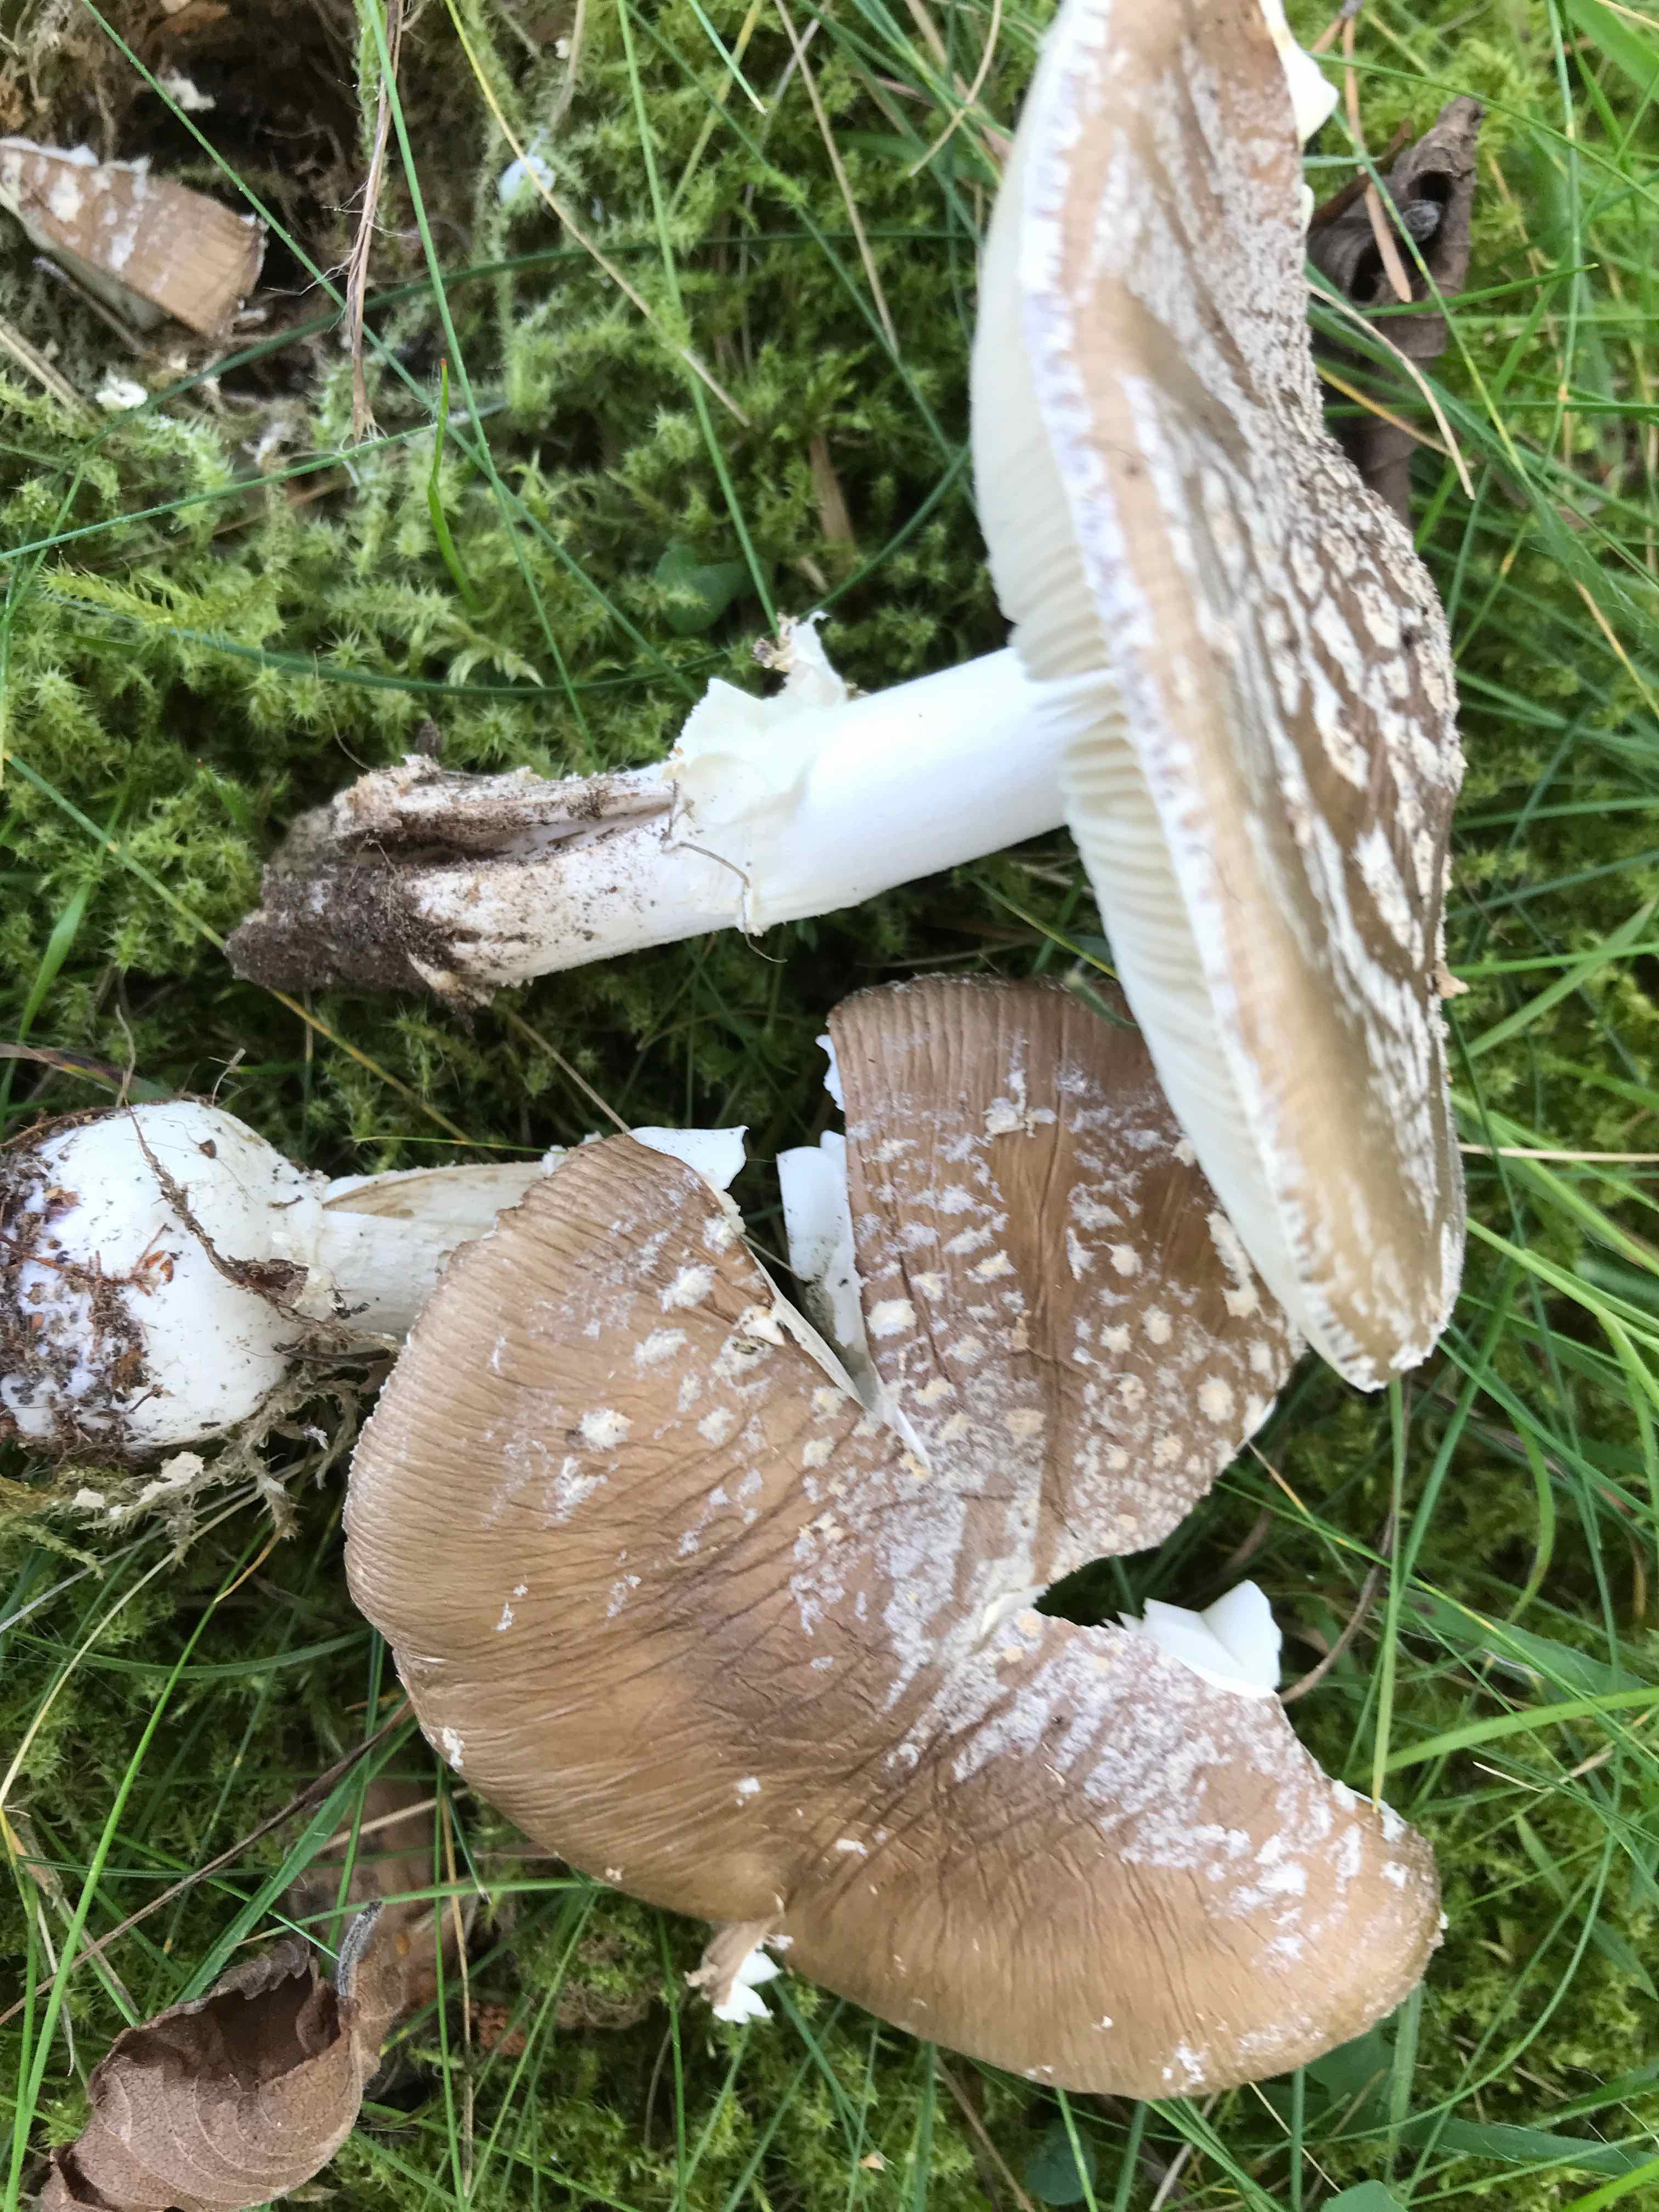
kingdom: Fungi
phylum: Basidiomycota
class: Agaricomycetes
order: Agaricales
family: Amanitaceae
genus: Amanita
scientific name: Amanita pantherina
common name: panter-fluesvamp
